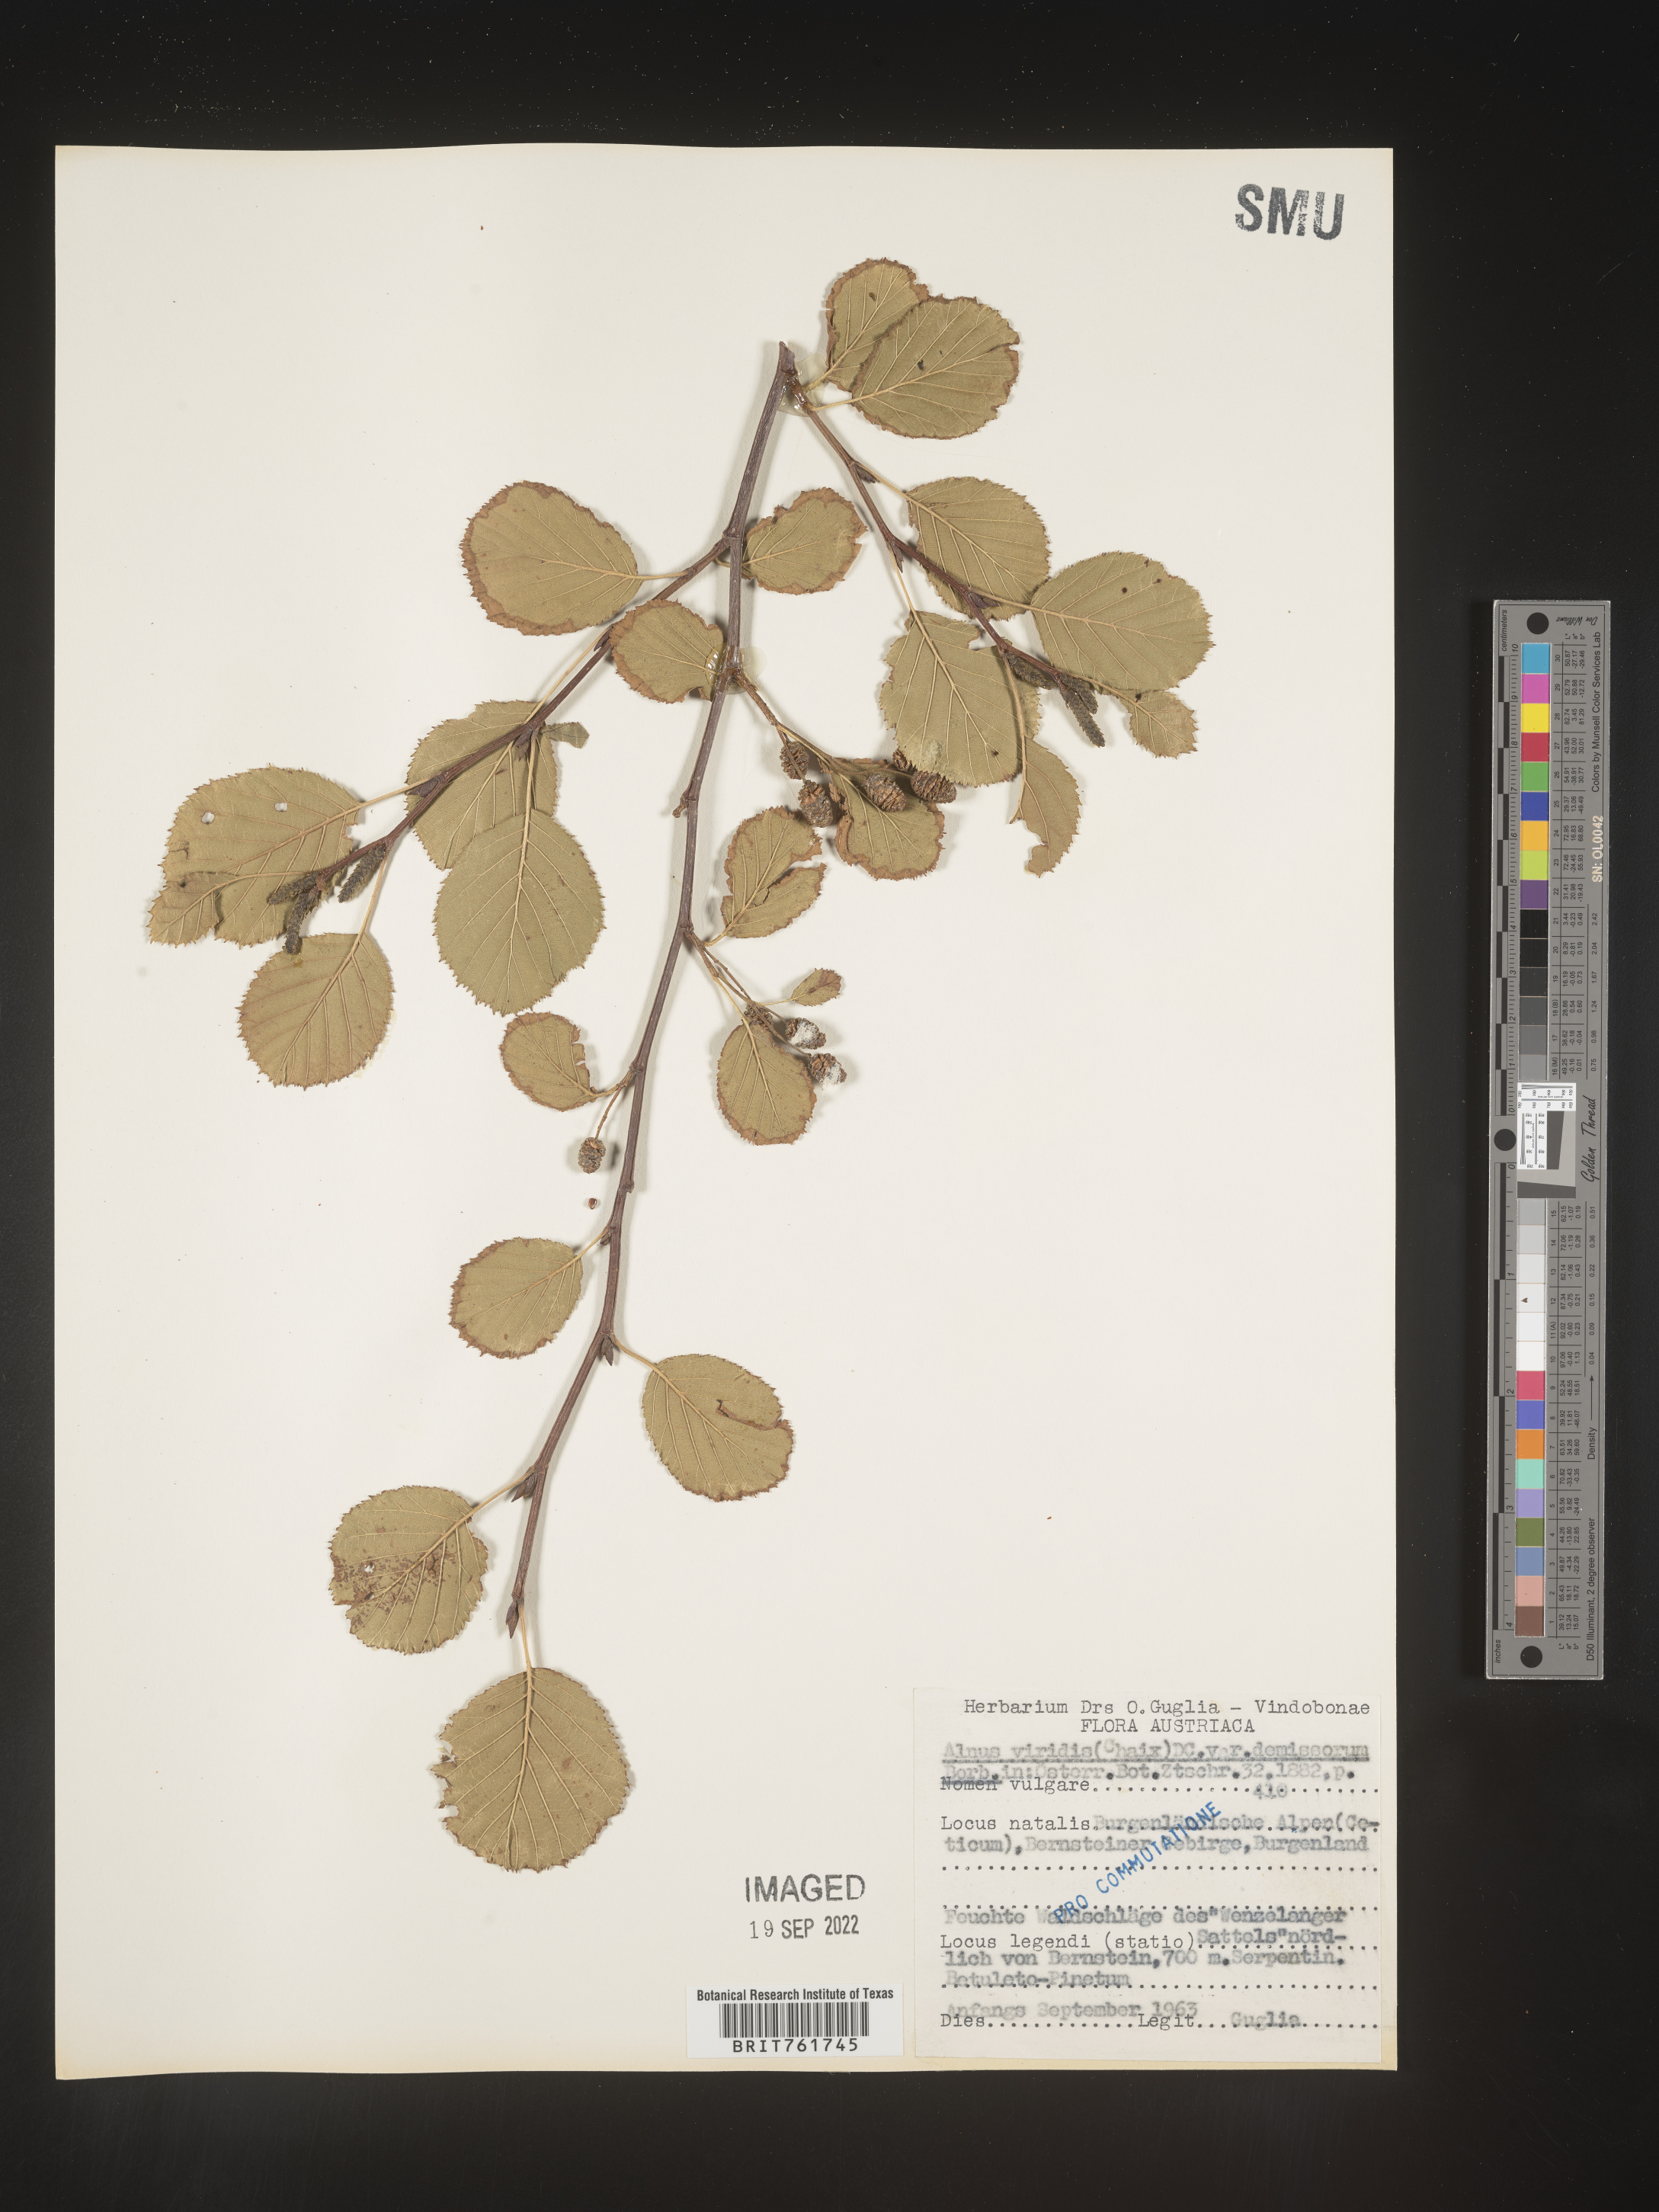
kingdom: Plantae
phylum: Tracheophyta
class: Magnoliopsida
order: Fagales
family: Betulaceae
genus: Alnus
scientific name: Alnus
